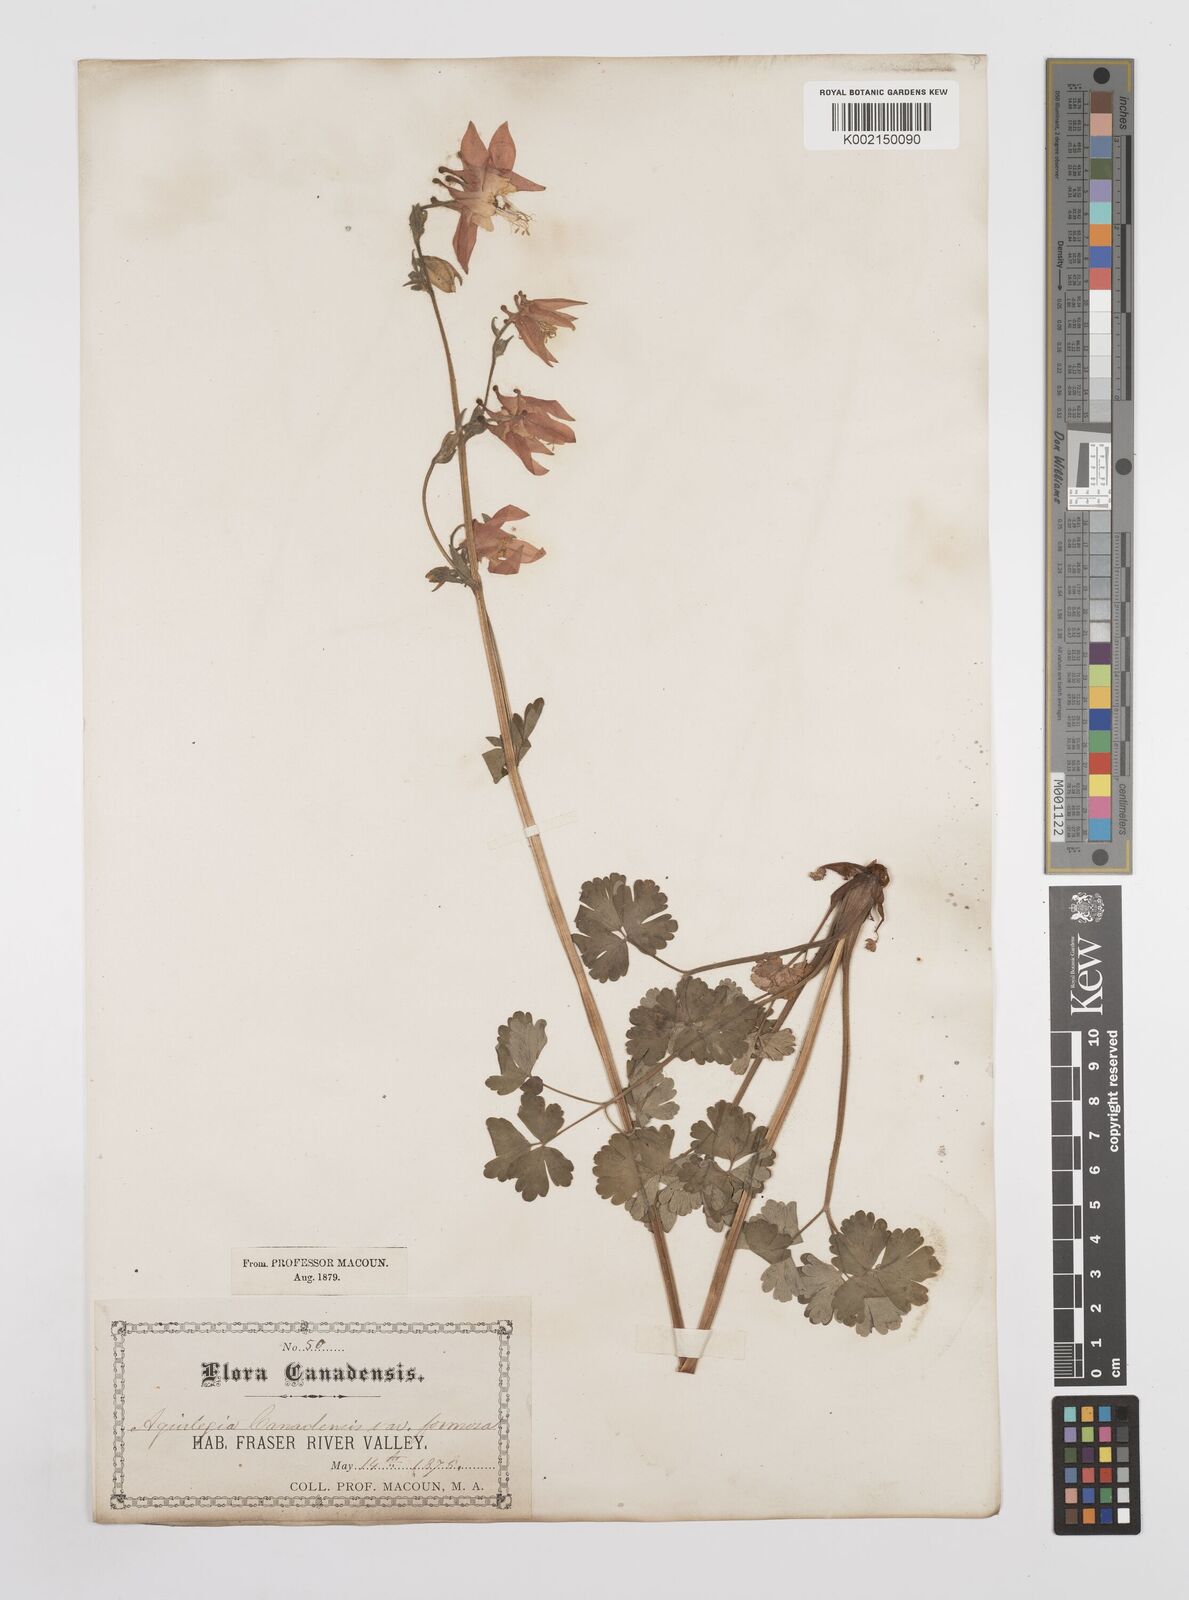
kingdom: Plantae
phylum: Tracheophyta
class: Magnoliopsida
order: Ranunculales
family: Ranunculaceae
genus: Aquilegia
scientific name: Aquilegia
